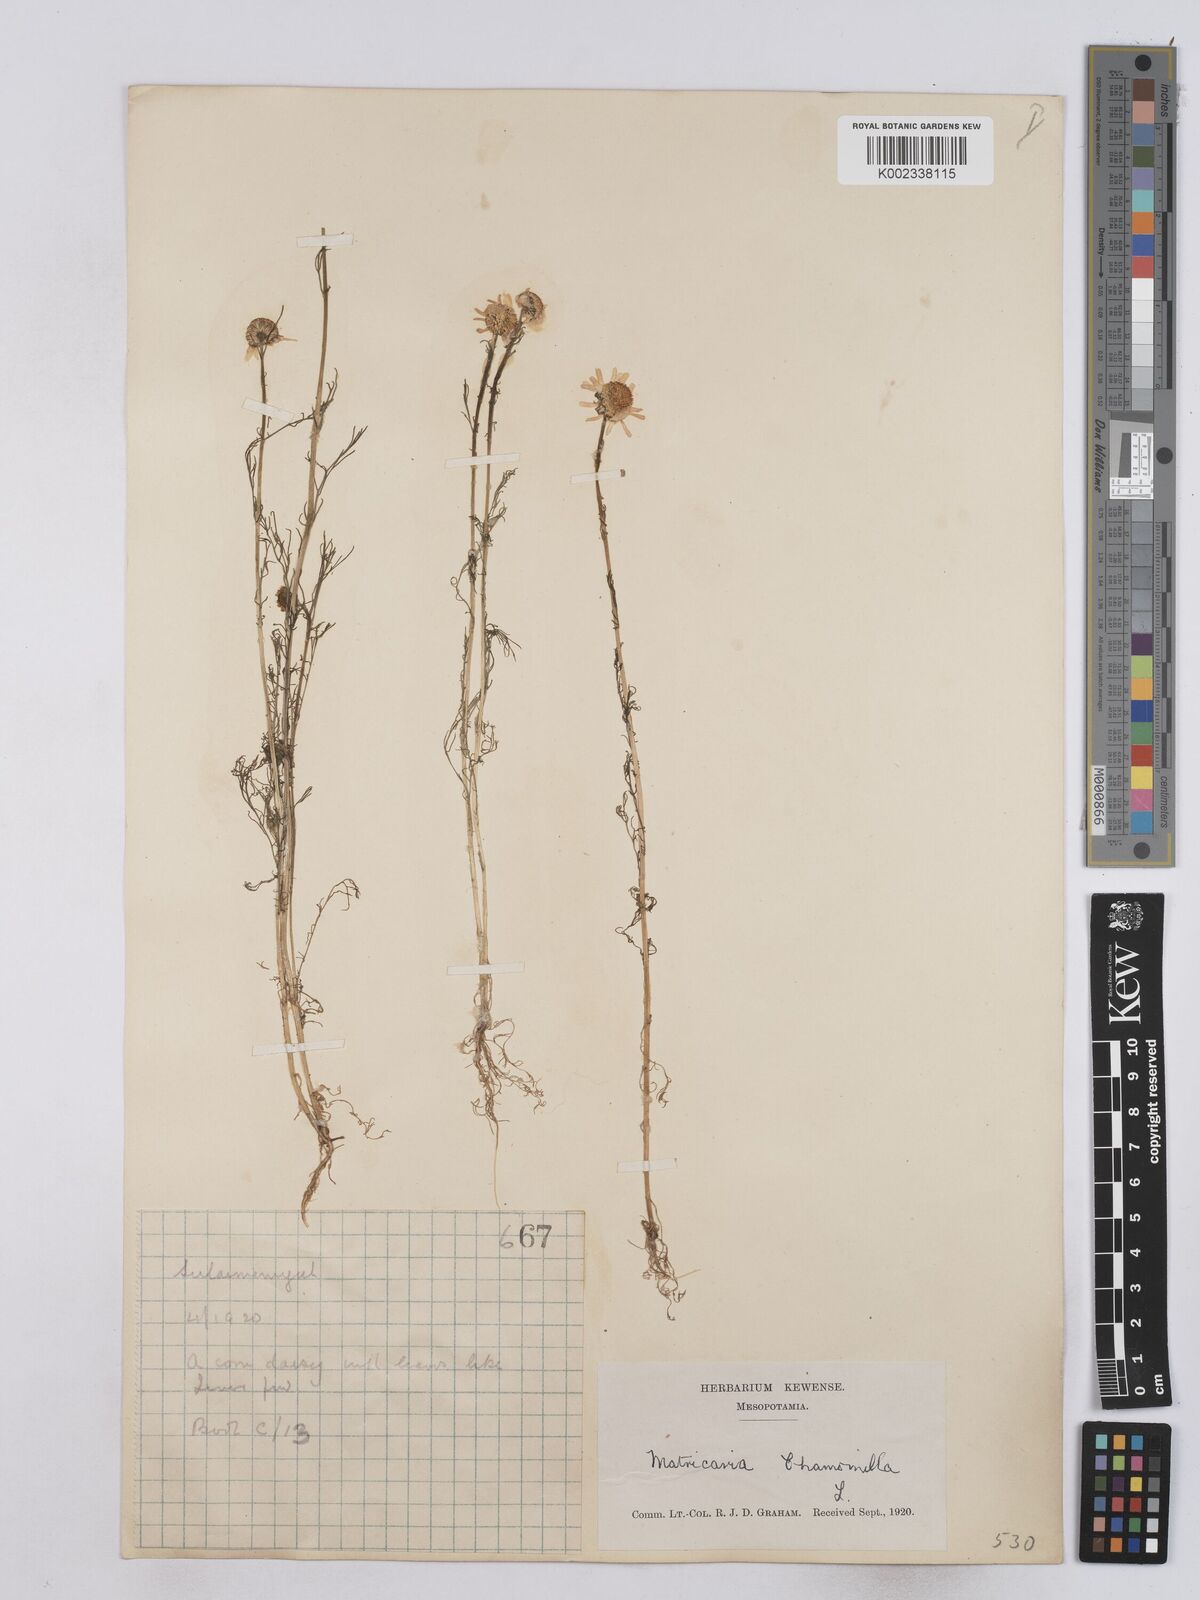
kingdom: Plantae
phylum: Tracheophyta
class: Magnoliopsida
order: Asterales
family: Asteraceae
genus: Matricaria
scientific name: Matricaria chamomilla
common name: Scented mayweed
